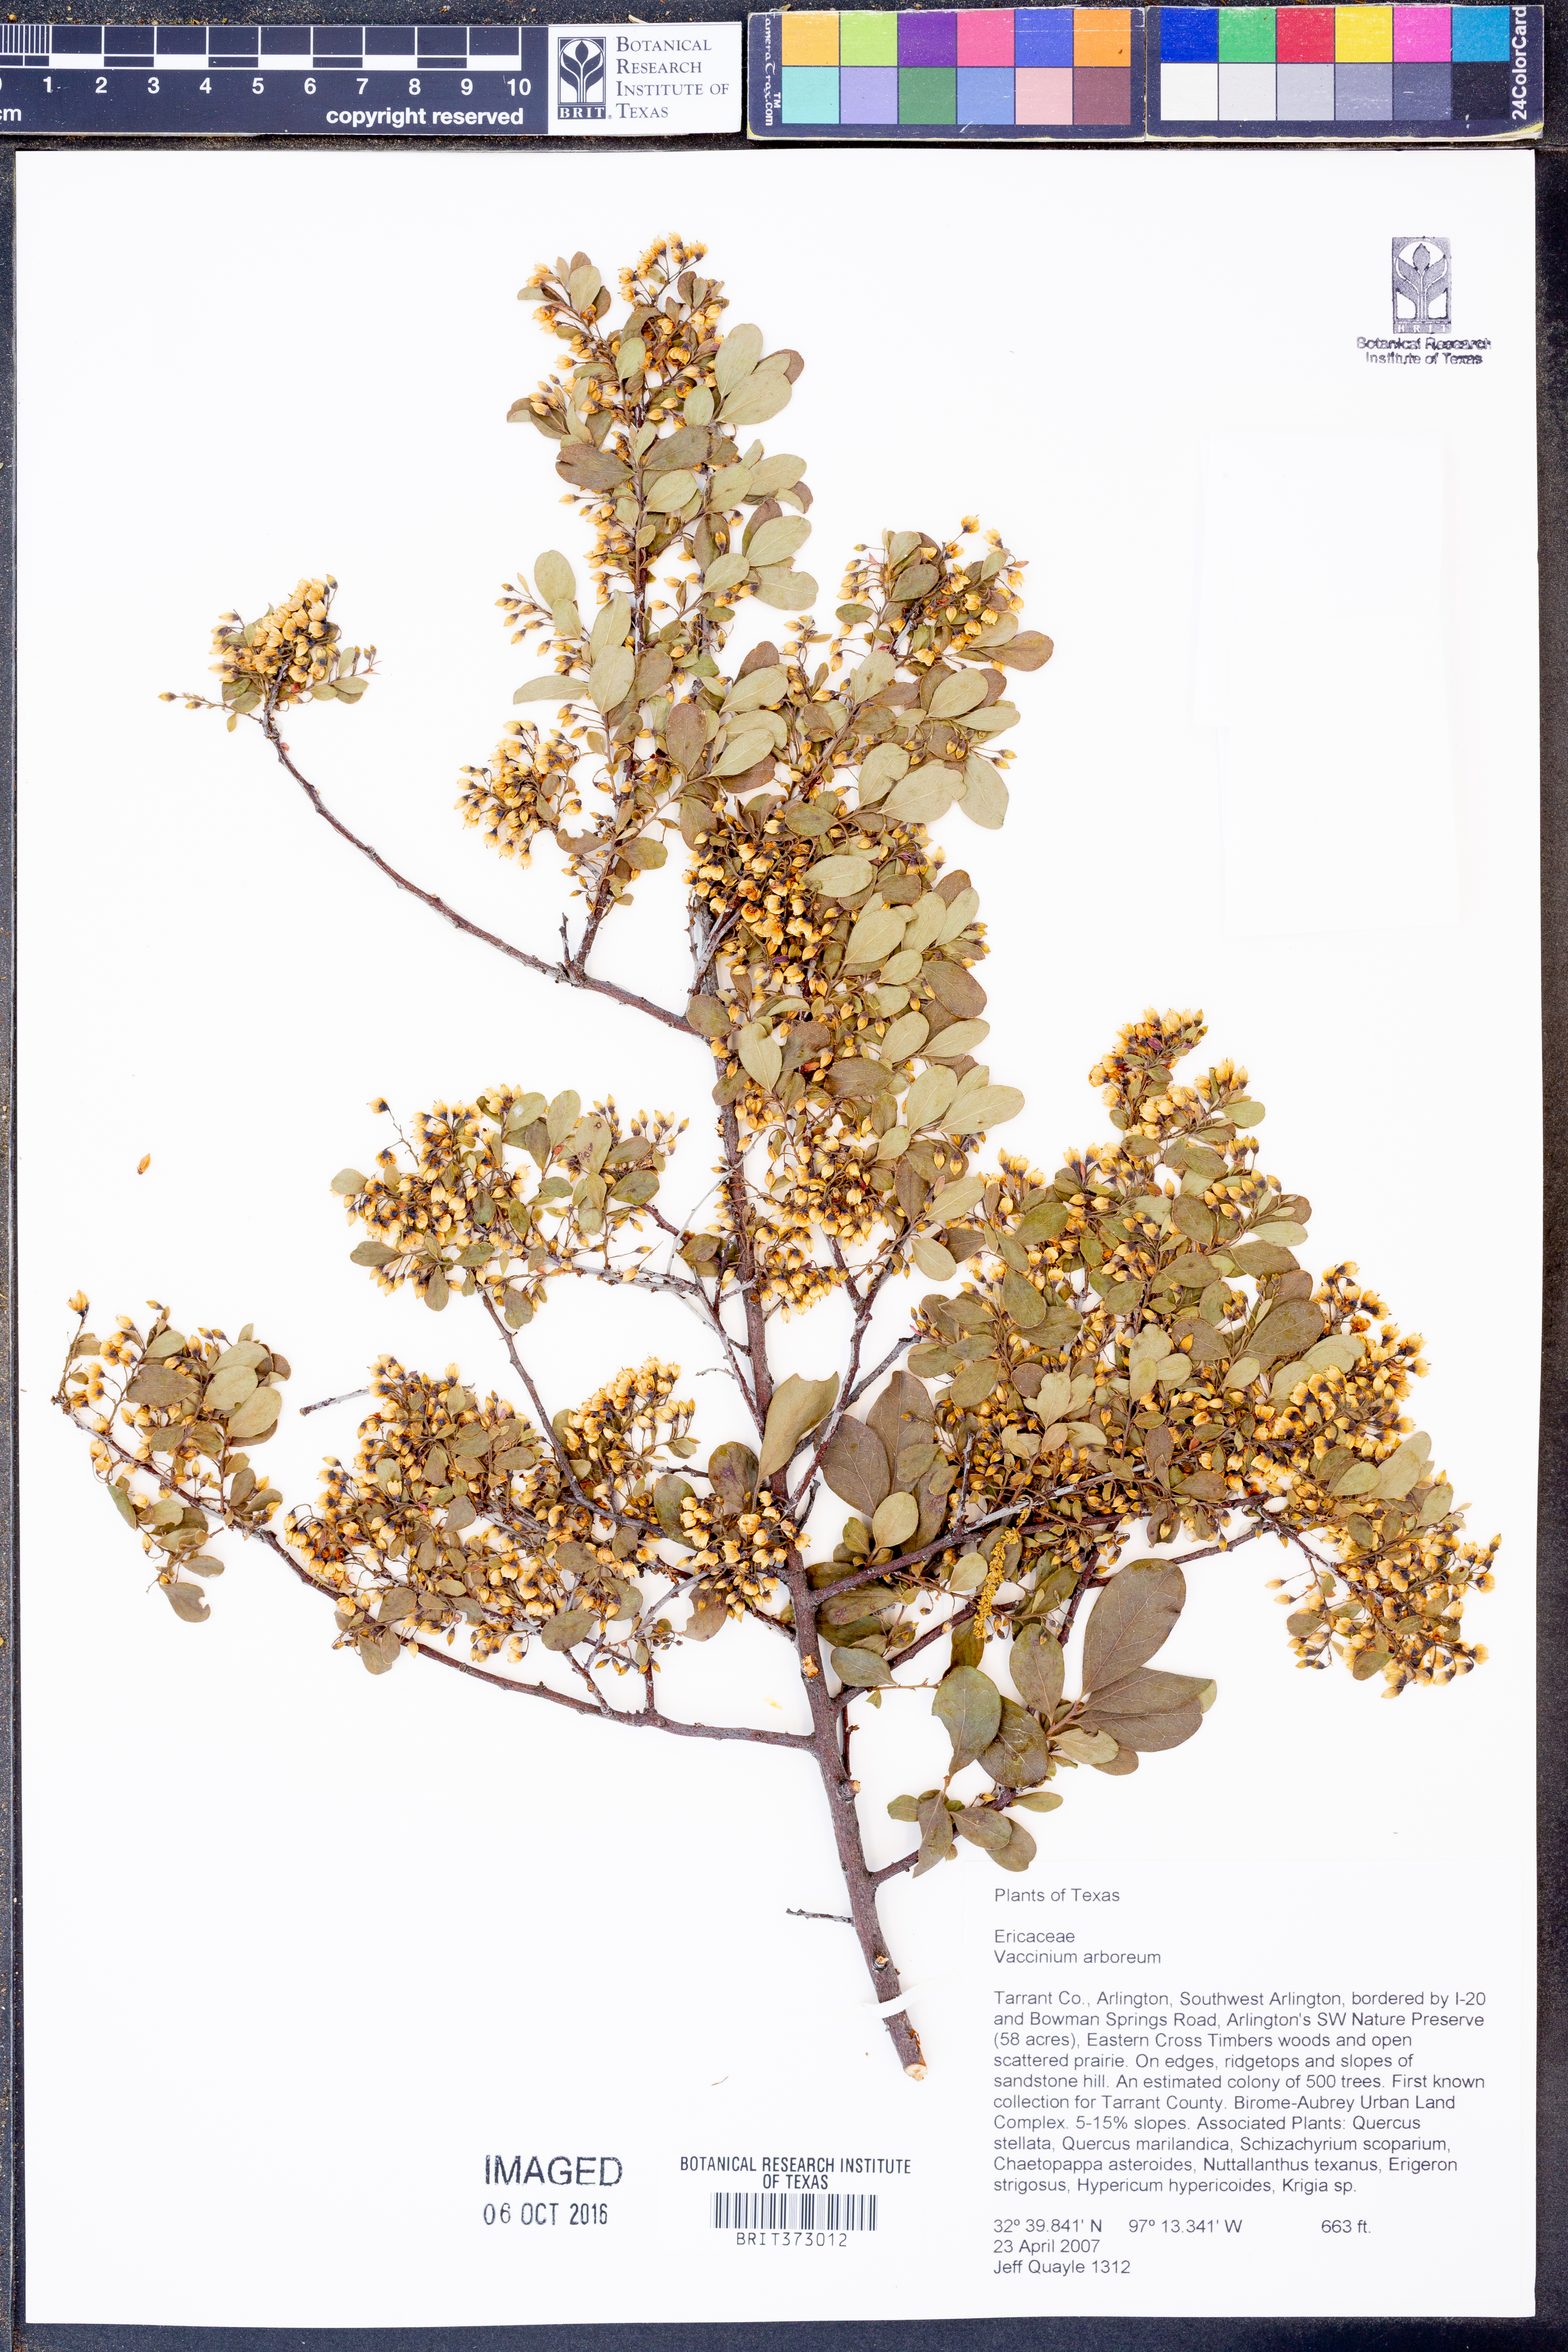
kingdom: Plantae
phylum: Tracheophyta
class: Magnoliopsida
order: Ericales
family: Ericaceae
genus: Vaccinium
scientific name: Vaccinium arboreum
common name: Farkleberry
